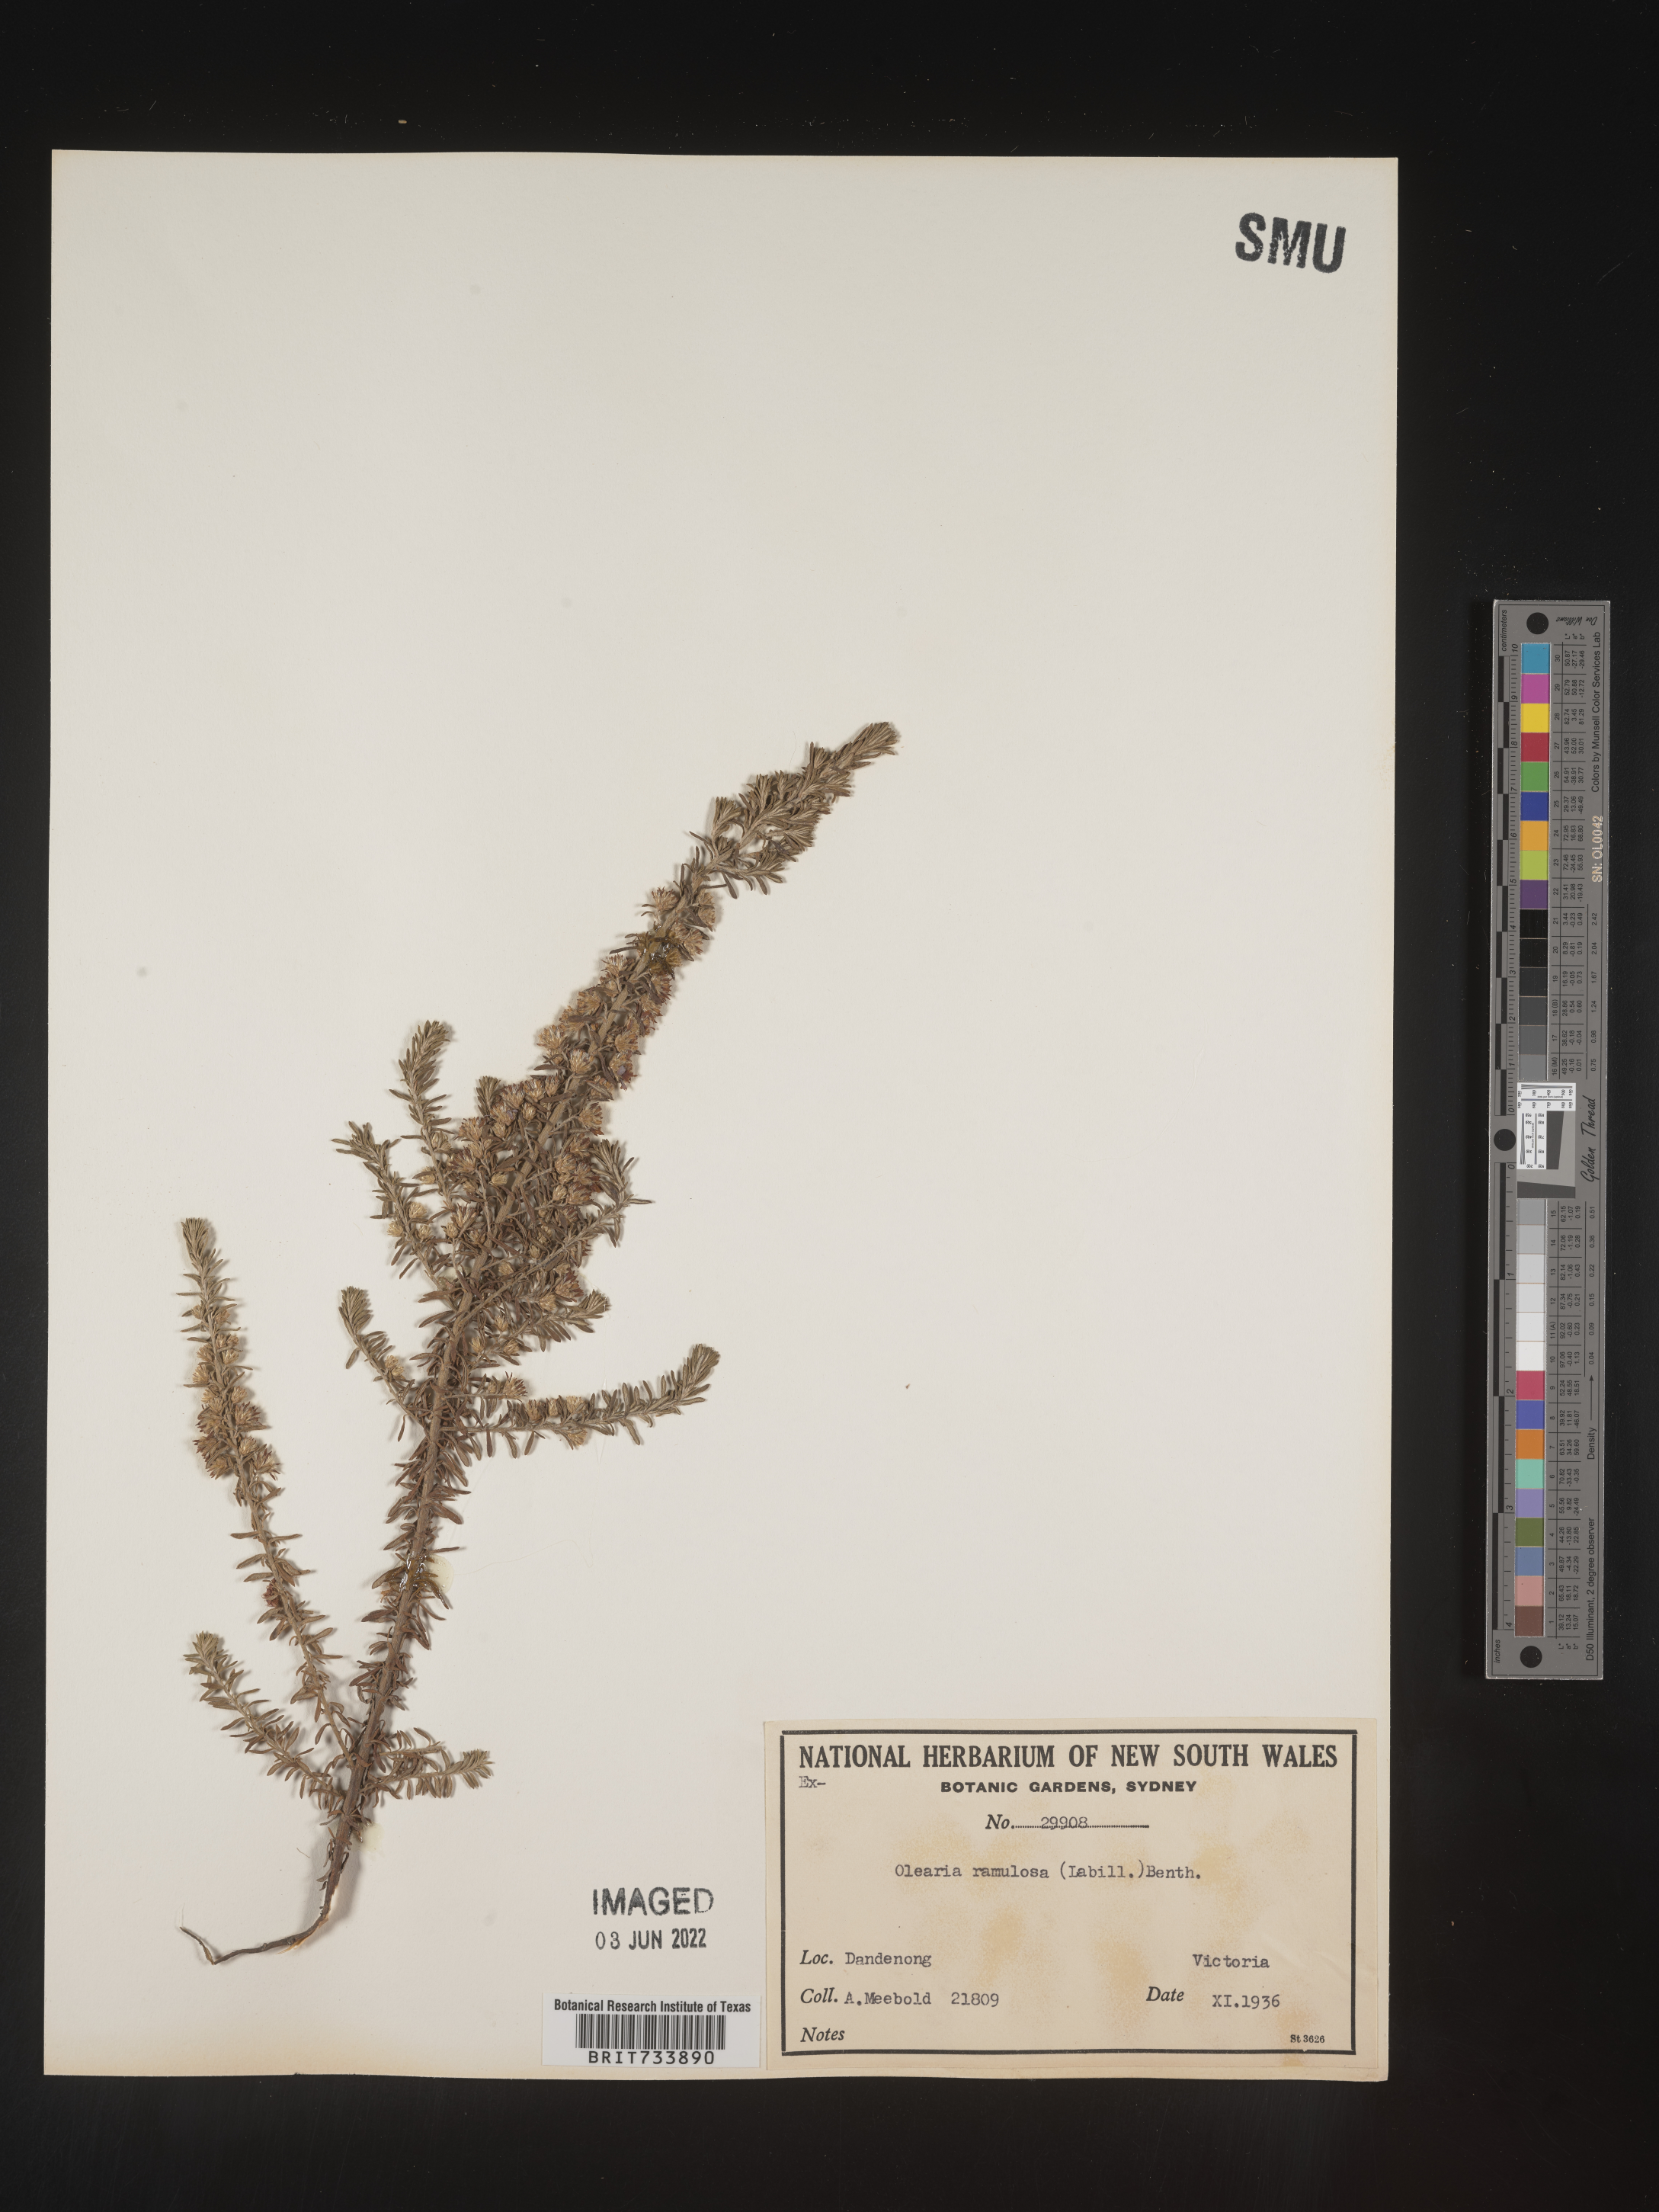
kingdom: Plantae
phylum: Tracheophyta
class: Magnoliopsida
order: Asterales
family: Asteraceae
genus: Olearia
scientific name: Olearia
